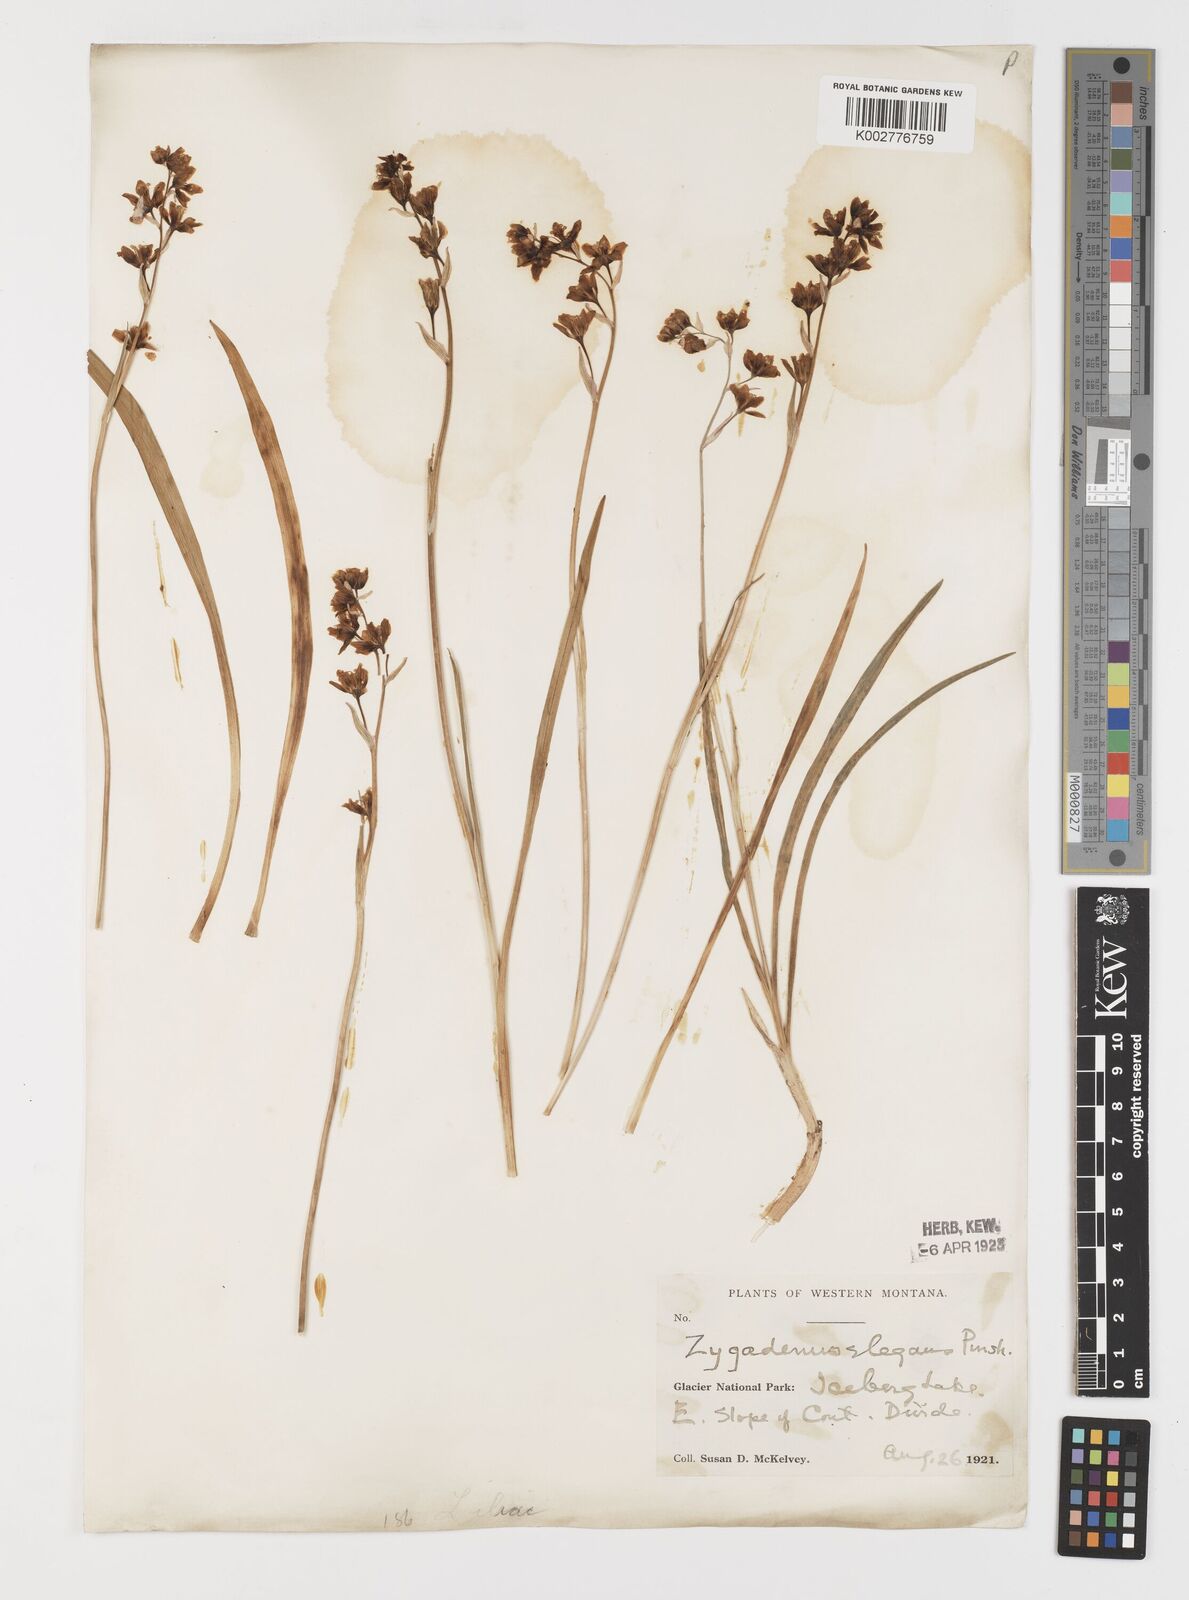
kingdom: Plantae
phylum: Tracheophyta
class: Liliopsida
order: Liliales
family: Melanthiaceae
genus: Anticlea
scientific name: Anticlea elegans
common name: Mountain death camas
